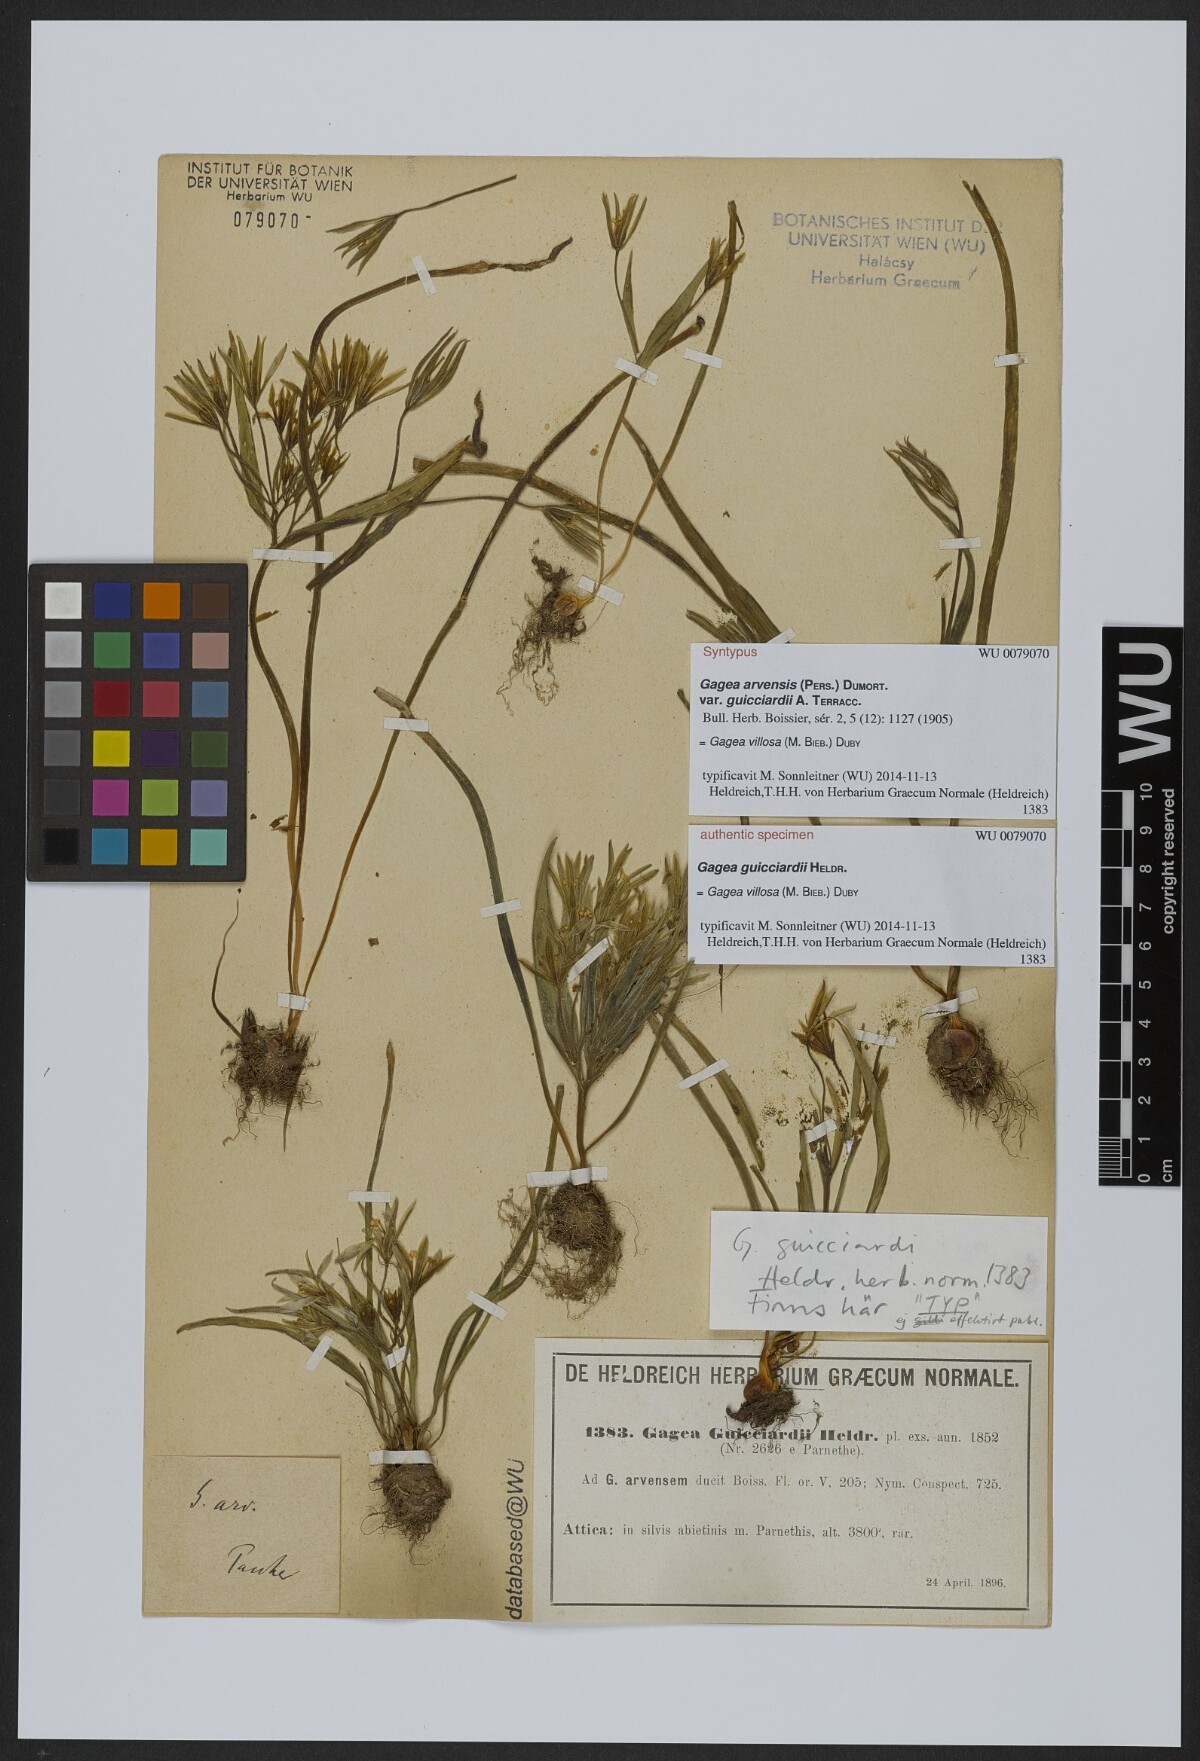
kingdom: Plantae
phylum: Tracheophyta
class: Liliopsida
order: Liliales
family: Liliaceae
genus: Gagea
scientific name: Gagea villosa
